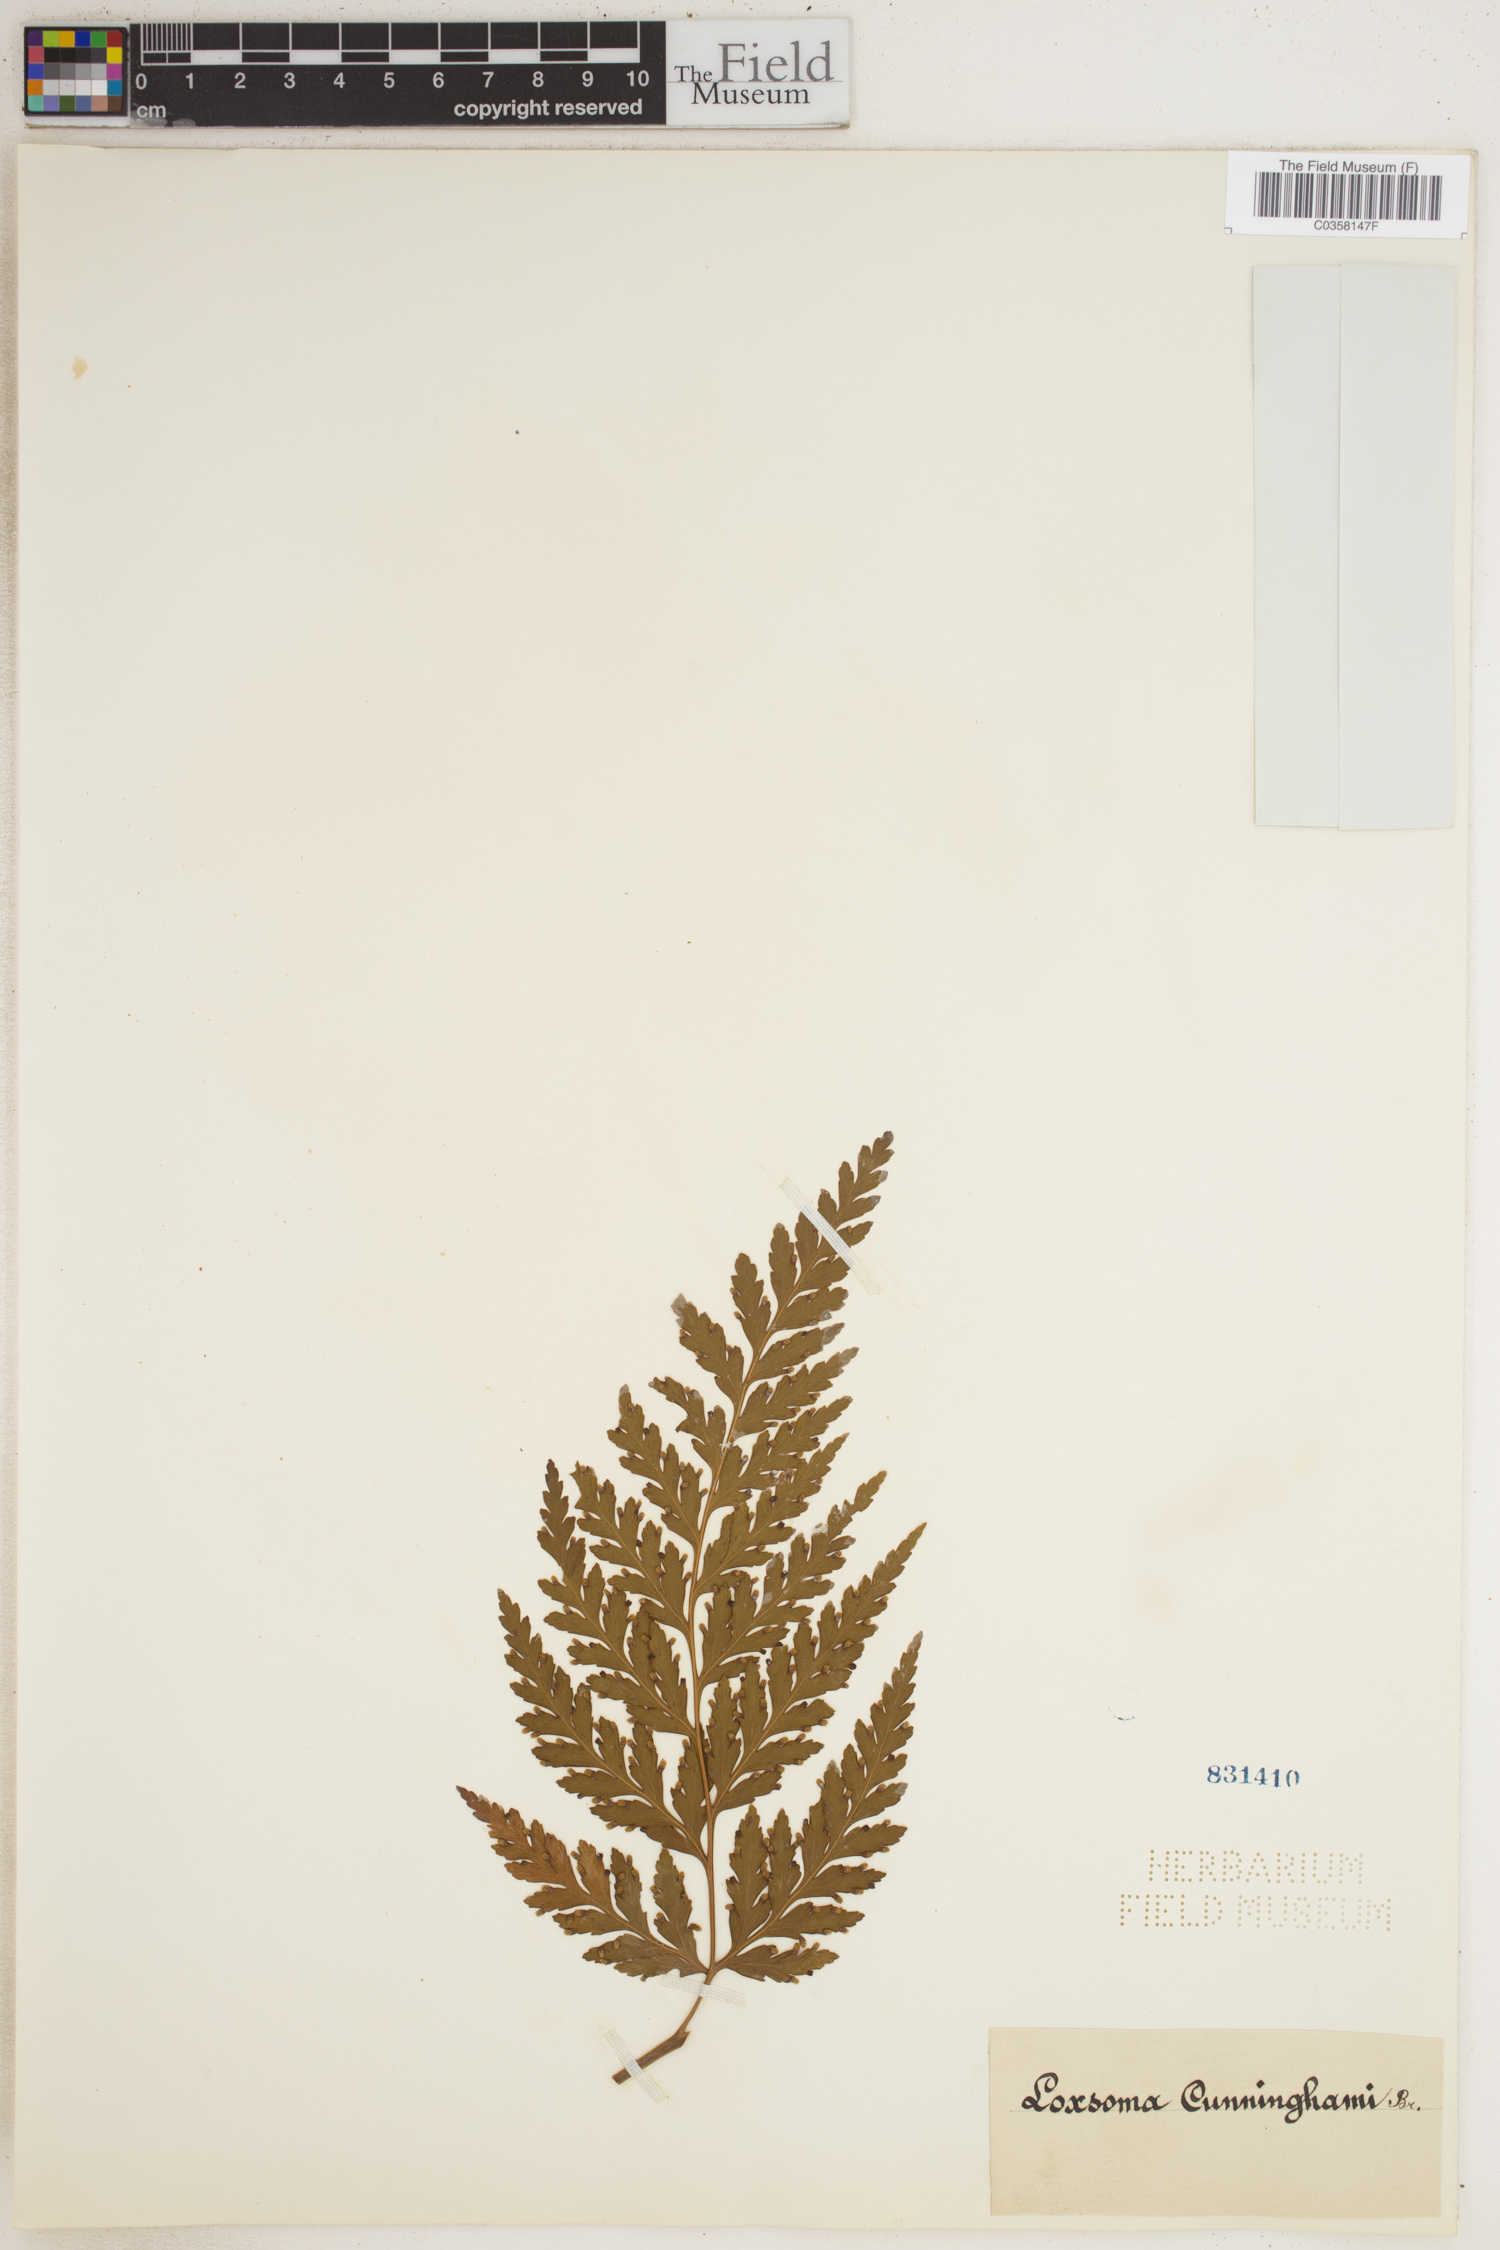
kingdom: Plantae
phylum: Tracheophyta
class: Polypodiopsida
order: Cyatheales
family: Loxsomataceae
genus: Loxsoma
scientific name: Loxsoma cunninghamii
